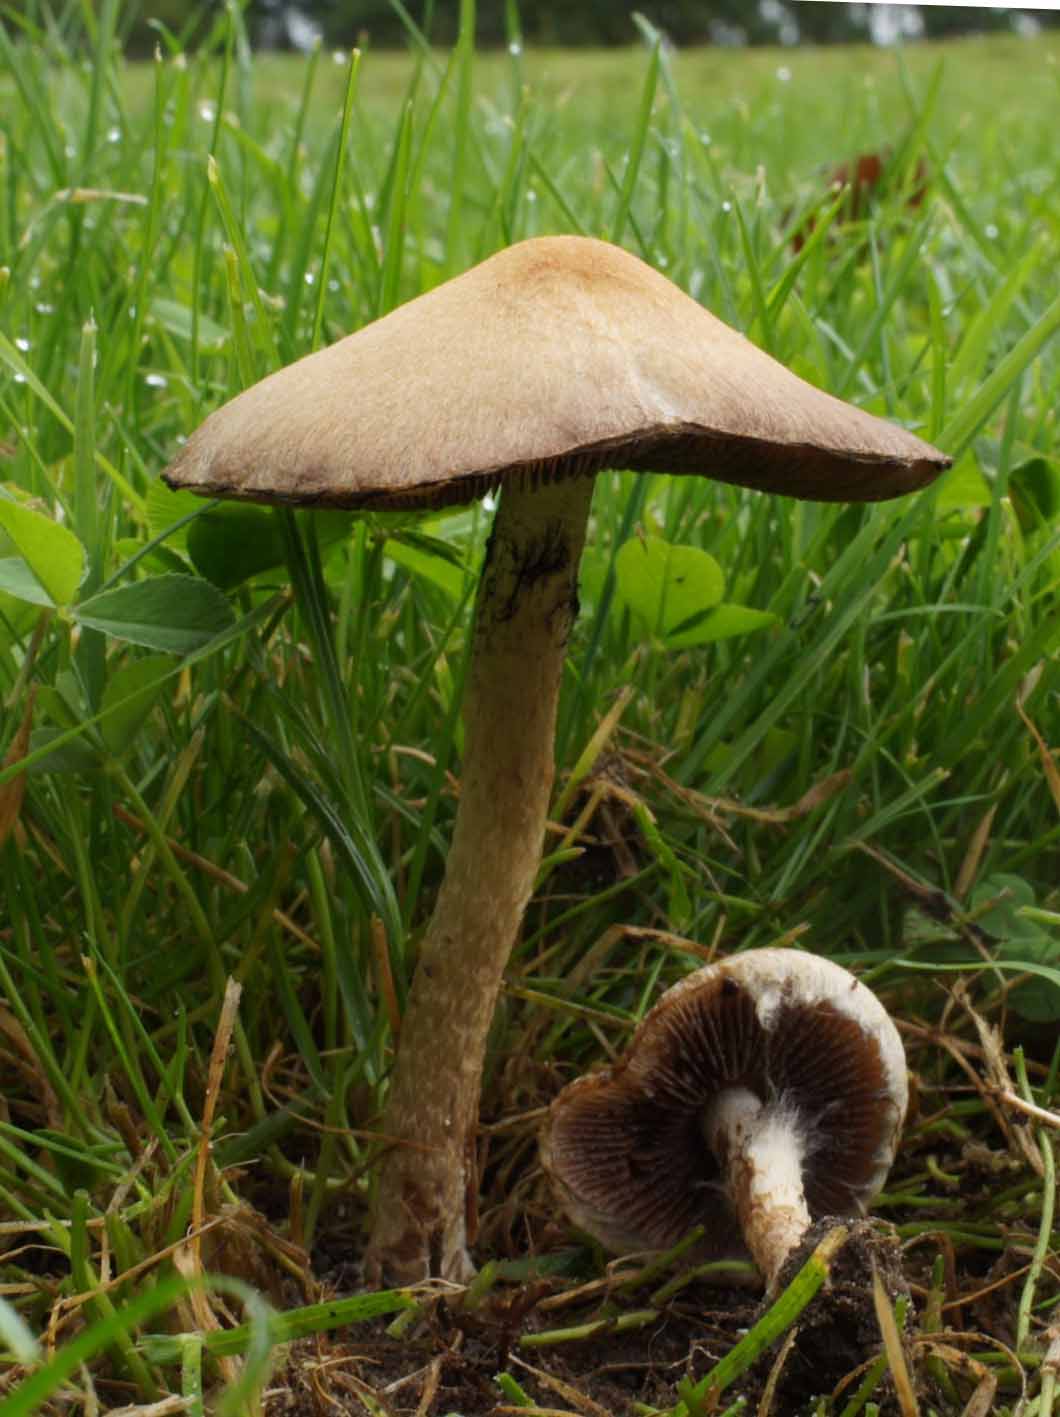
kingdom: Fungi
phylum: Basidiomycota
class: Agaricomycetes
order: Agaricales
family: Psathyrellaceae
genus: Lacrymaria
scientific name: Lacrymaria lacrymabunda
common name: grædende mørkhat
